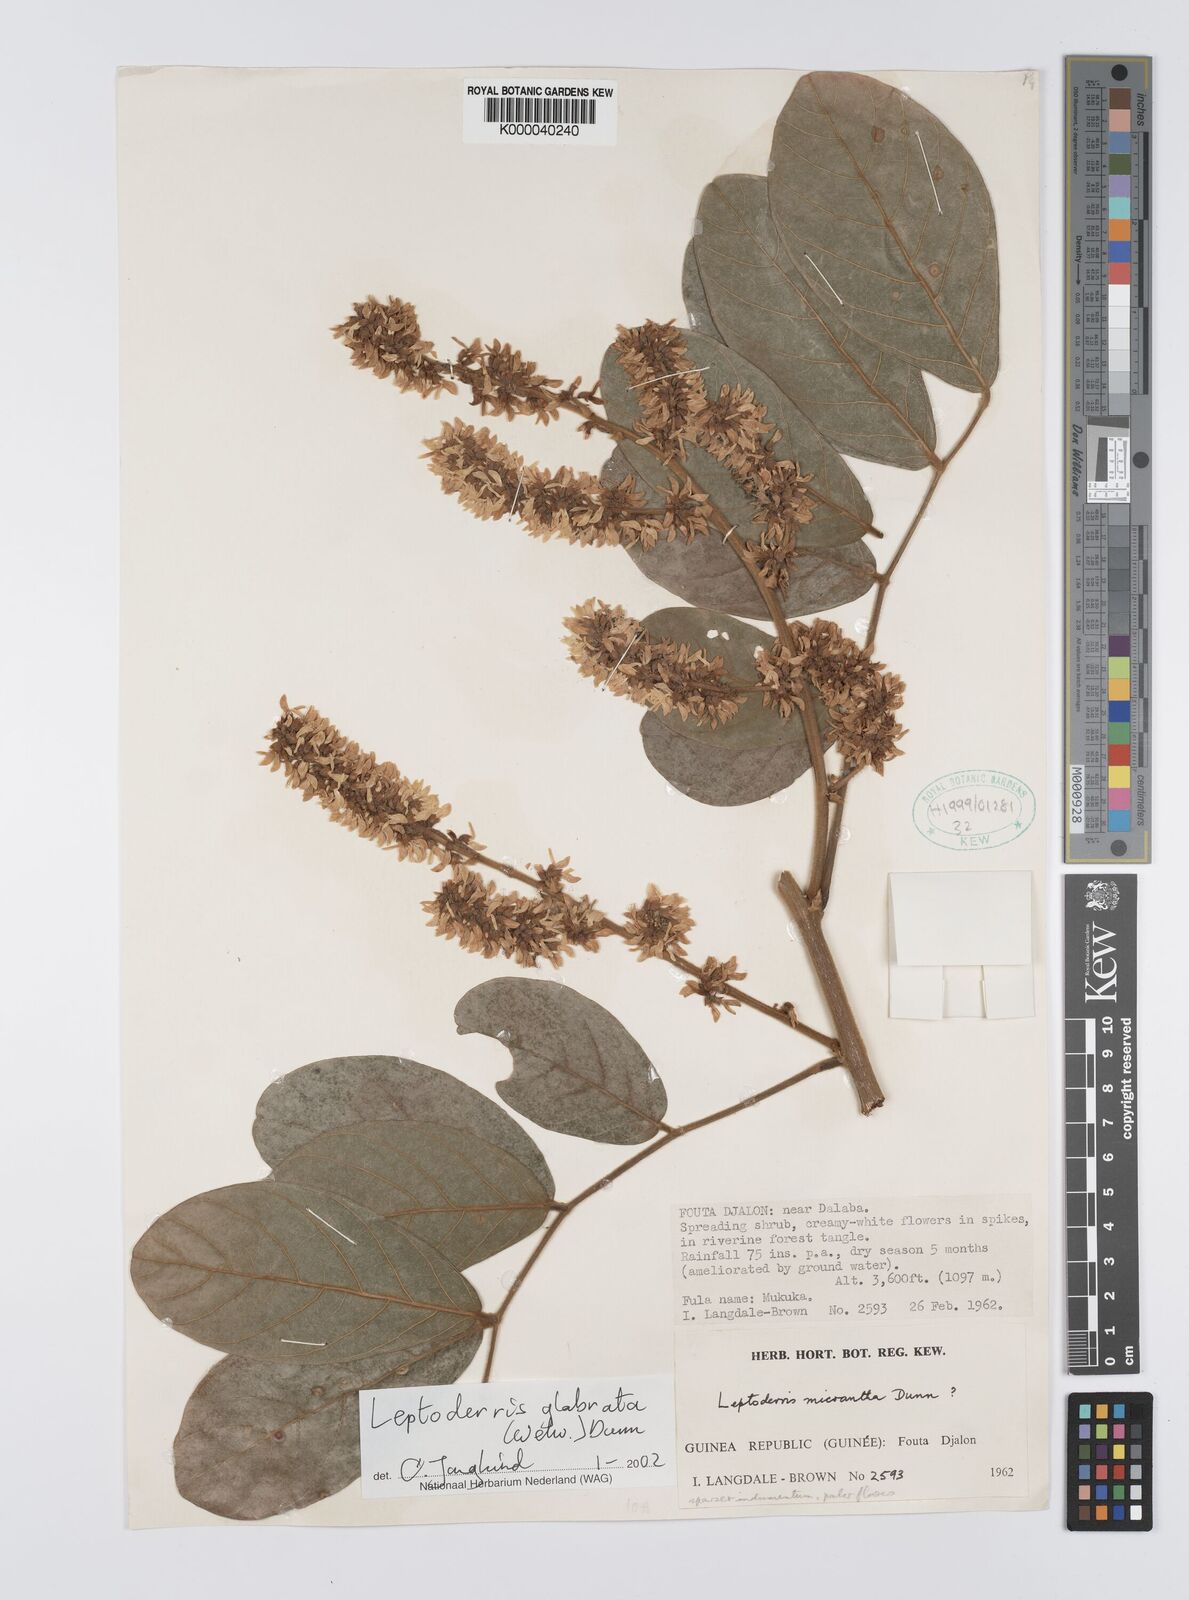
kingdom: Plantae
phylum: Tracheophyta
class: Magnoliopsida
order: Fabales
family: Fabaceae
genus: Leptoderris
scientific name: Leptoderris
